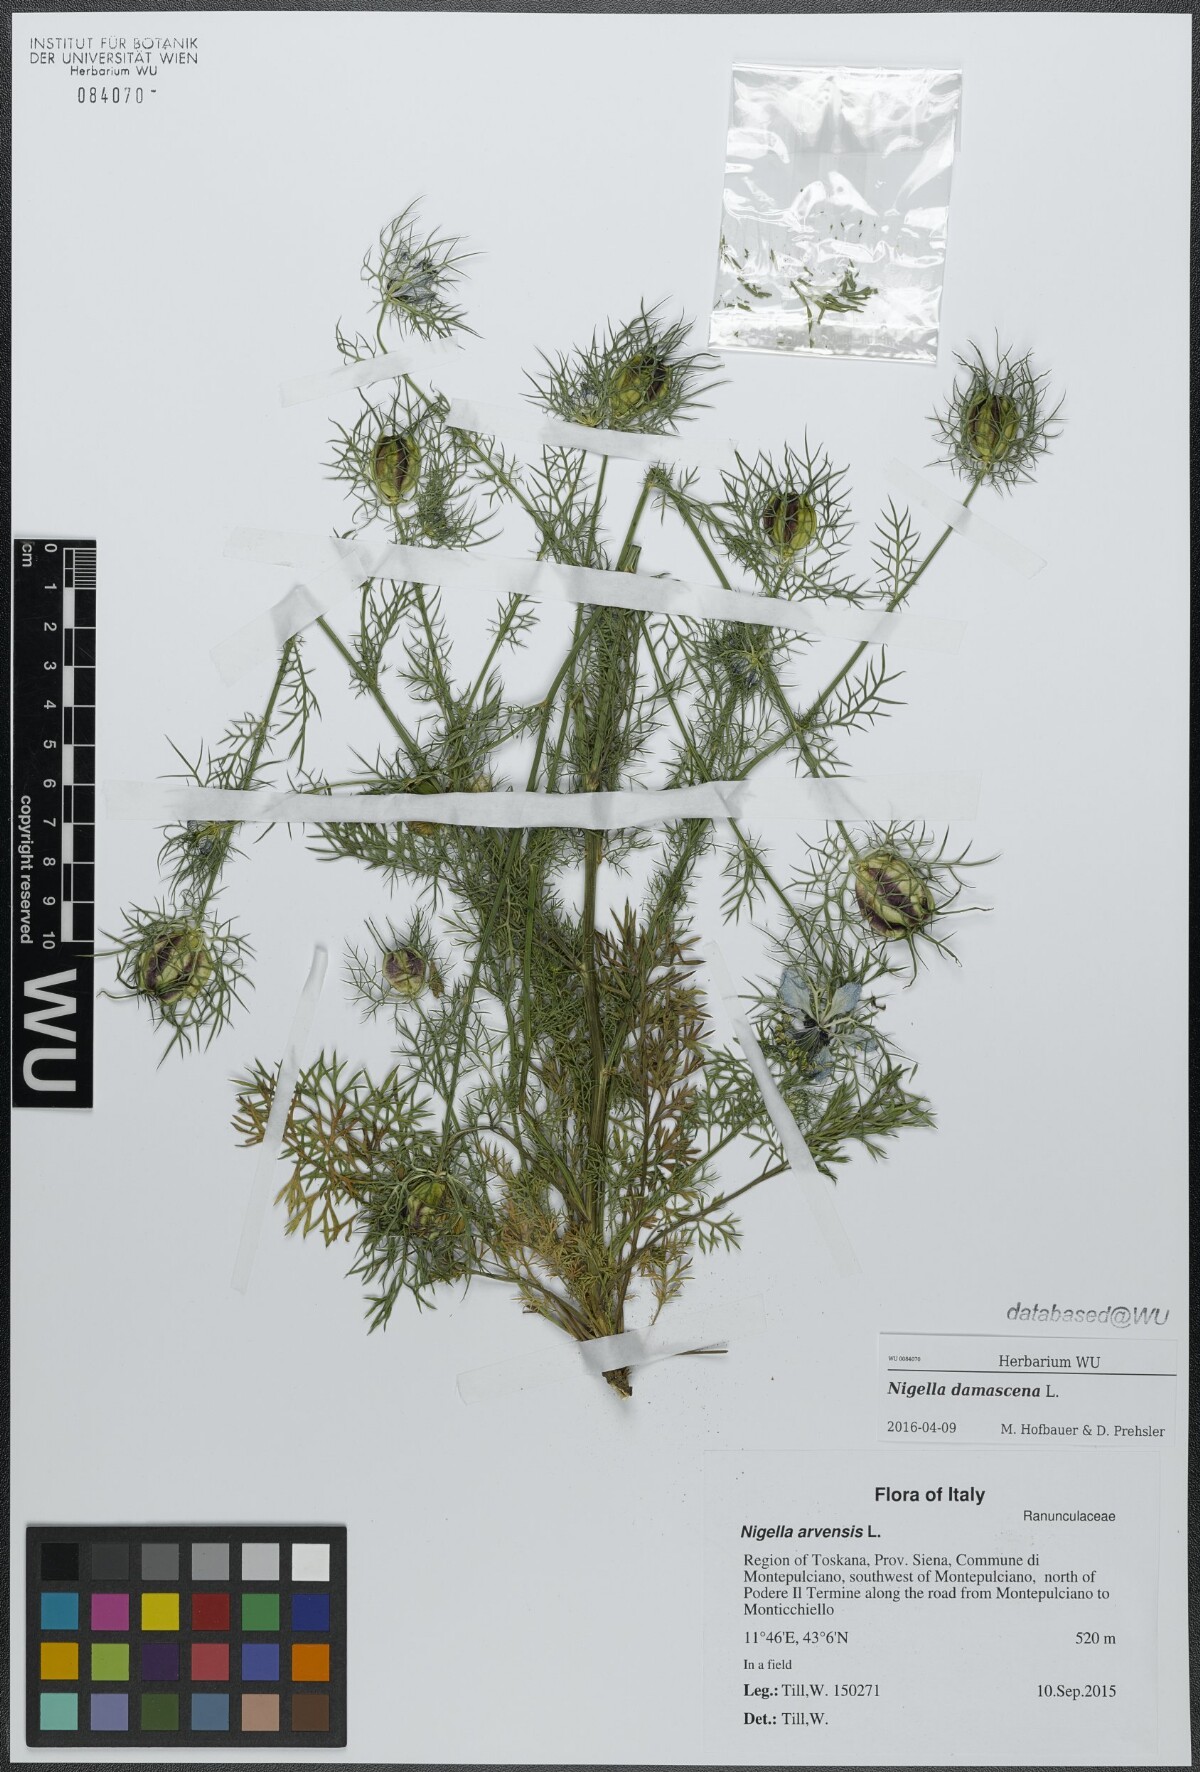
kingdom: Plantae
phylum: Tracheophyta
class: Magnoliopsida
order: Ranunculales
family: Ranunculaceae
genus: Nigella
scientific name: Nigella damascena
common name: Love-in-a-mist
